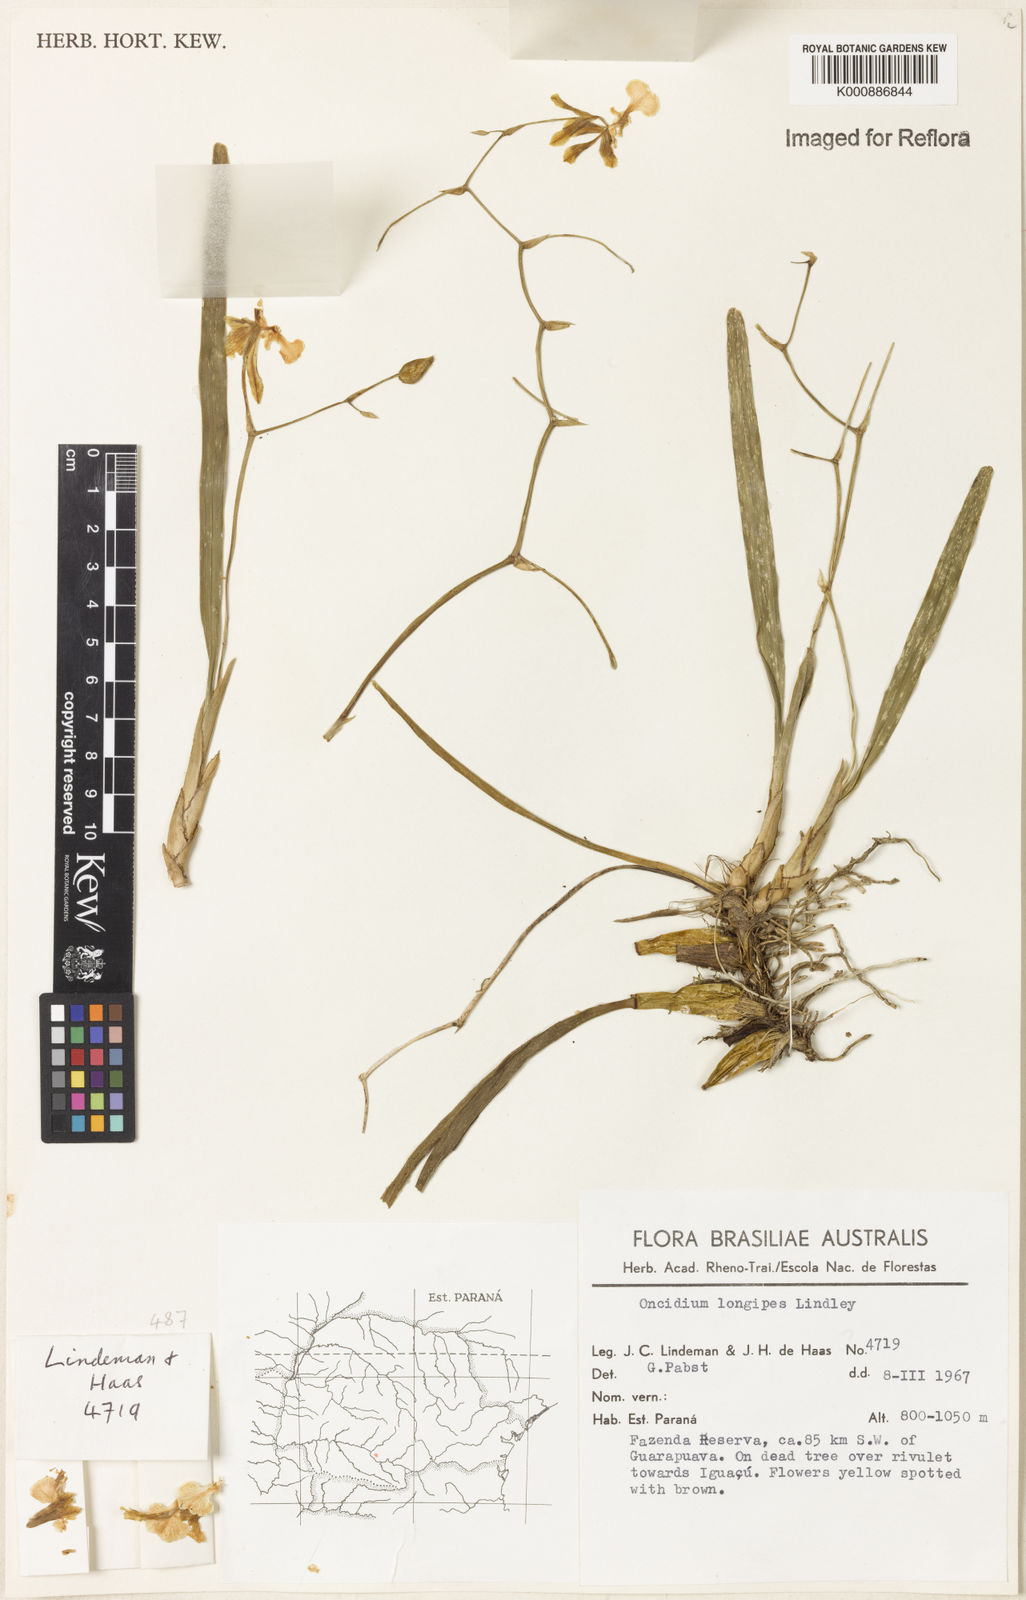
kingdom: Plantae
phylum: Tracheophyta
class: Liliopsida
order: Asparagales
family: Orchidaceae
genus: Gomesa
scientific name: Gomesa uniflora
